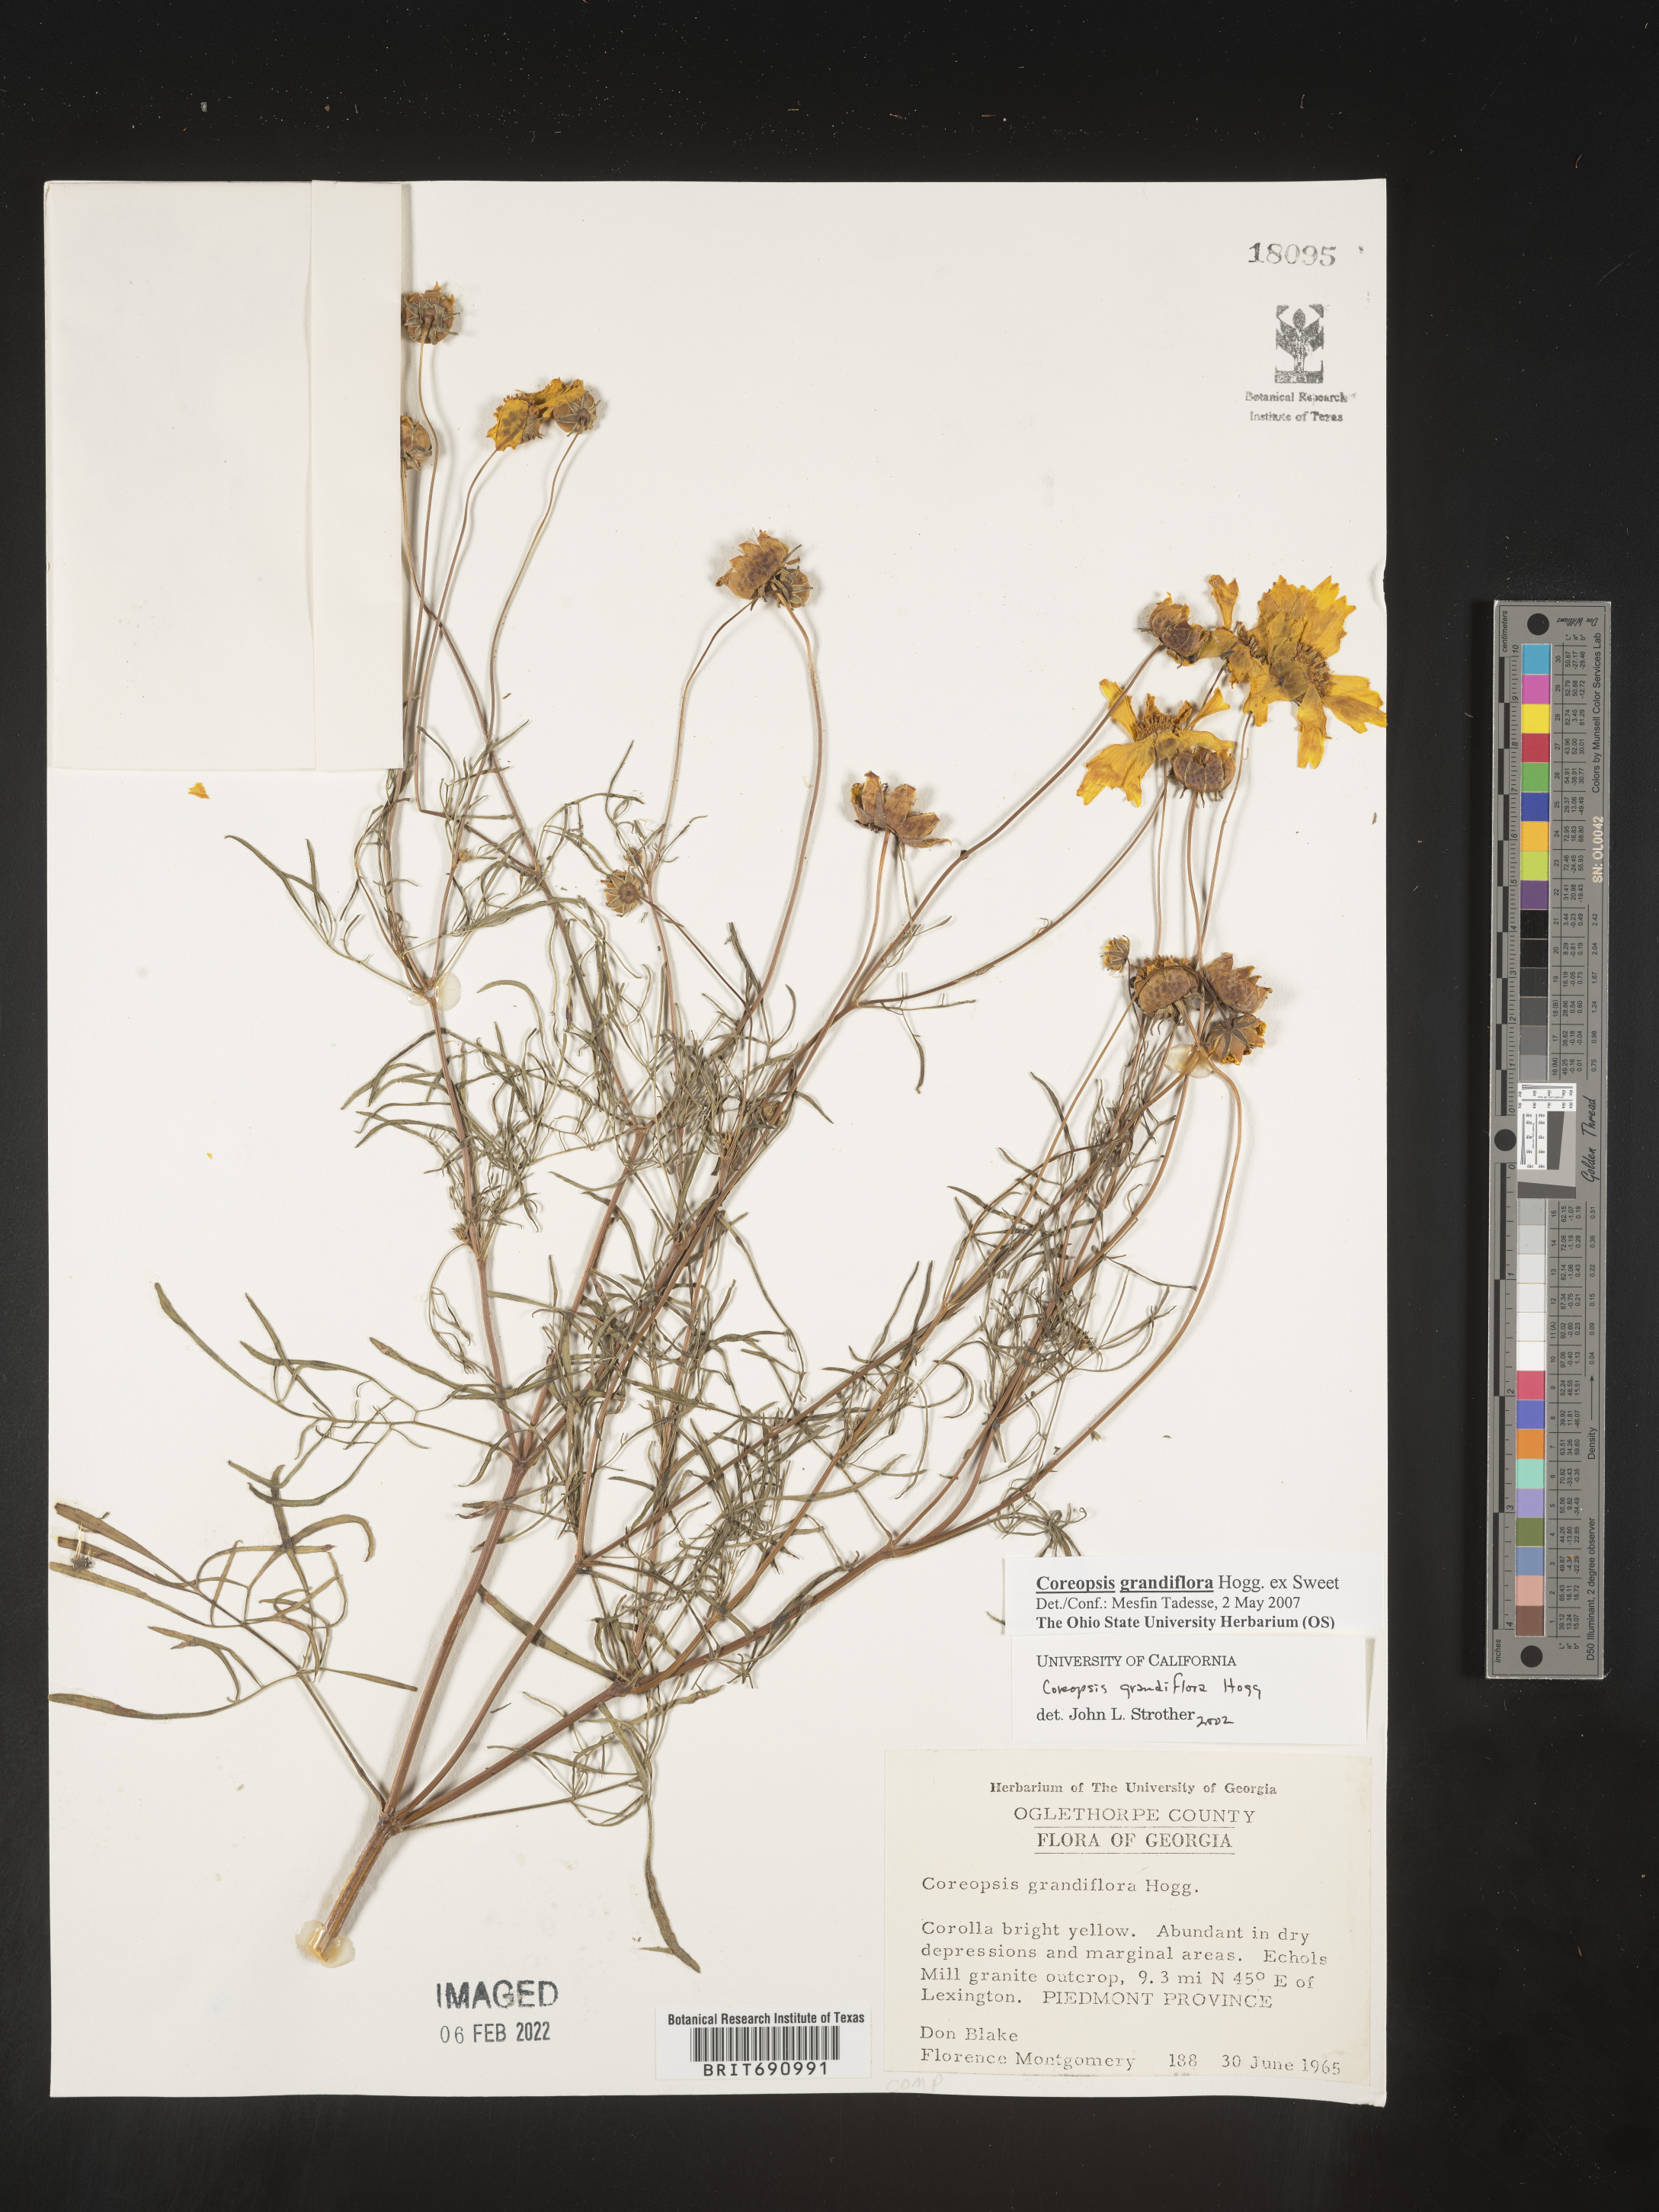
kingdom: Plantae
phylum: Tracheophyta
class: Magnoliopsida
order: Asterales
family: Asteraceae
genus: Coreopsis
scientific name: Coreopsis grandiflora
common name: Large-flowered tickseed
